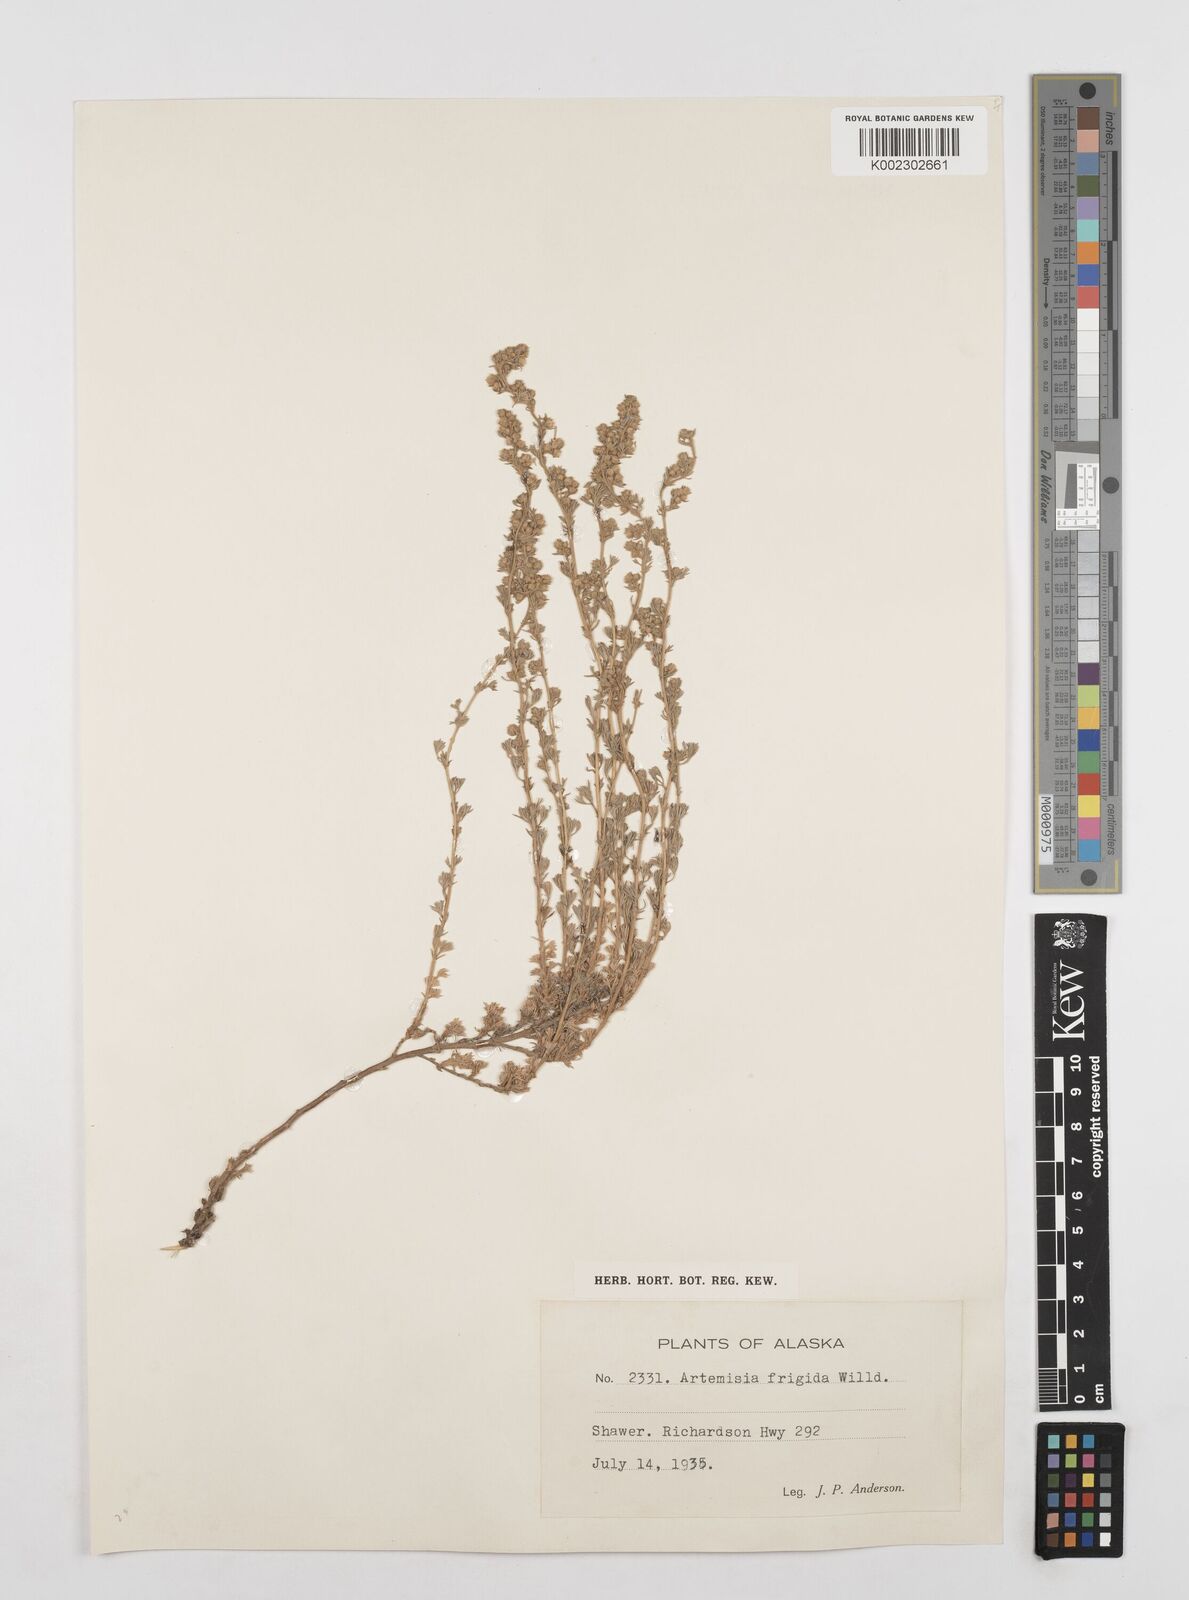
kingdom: Plantae
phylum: Tracheophyta
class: Magnoliopsida
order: Asterales
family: Asteraceae
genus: Artemisia
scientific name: Artemisia frigida
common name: Prairie sagewort
